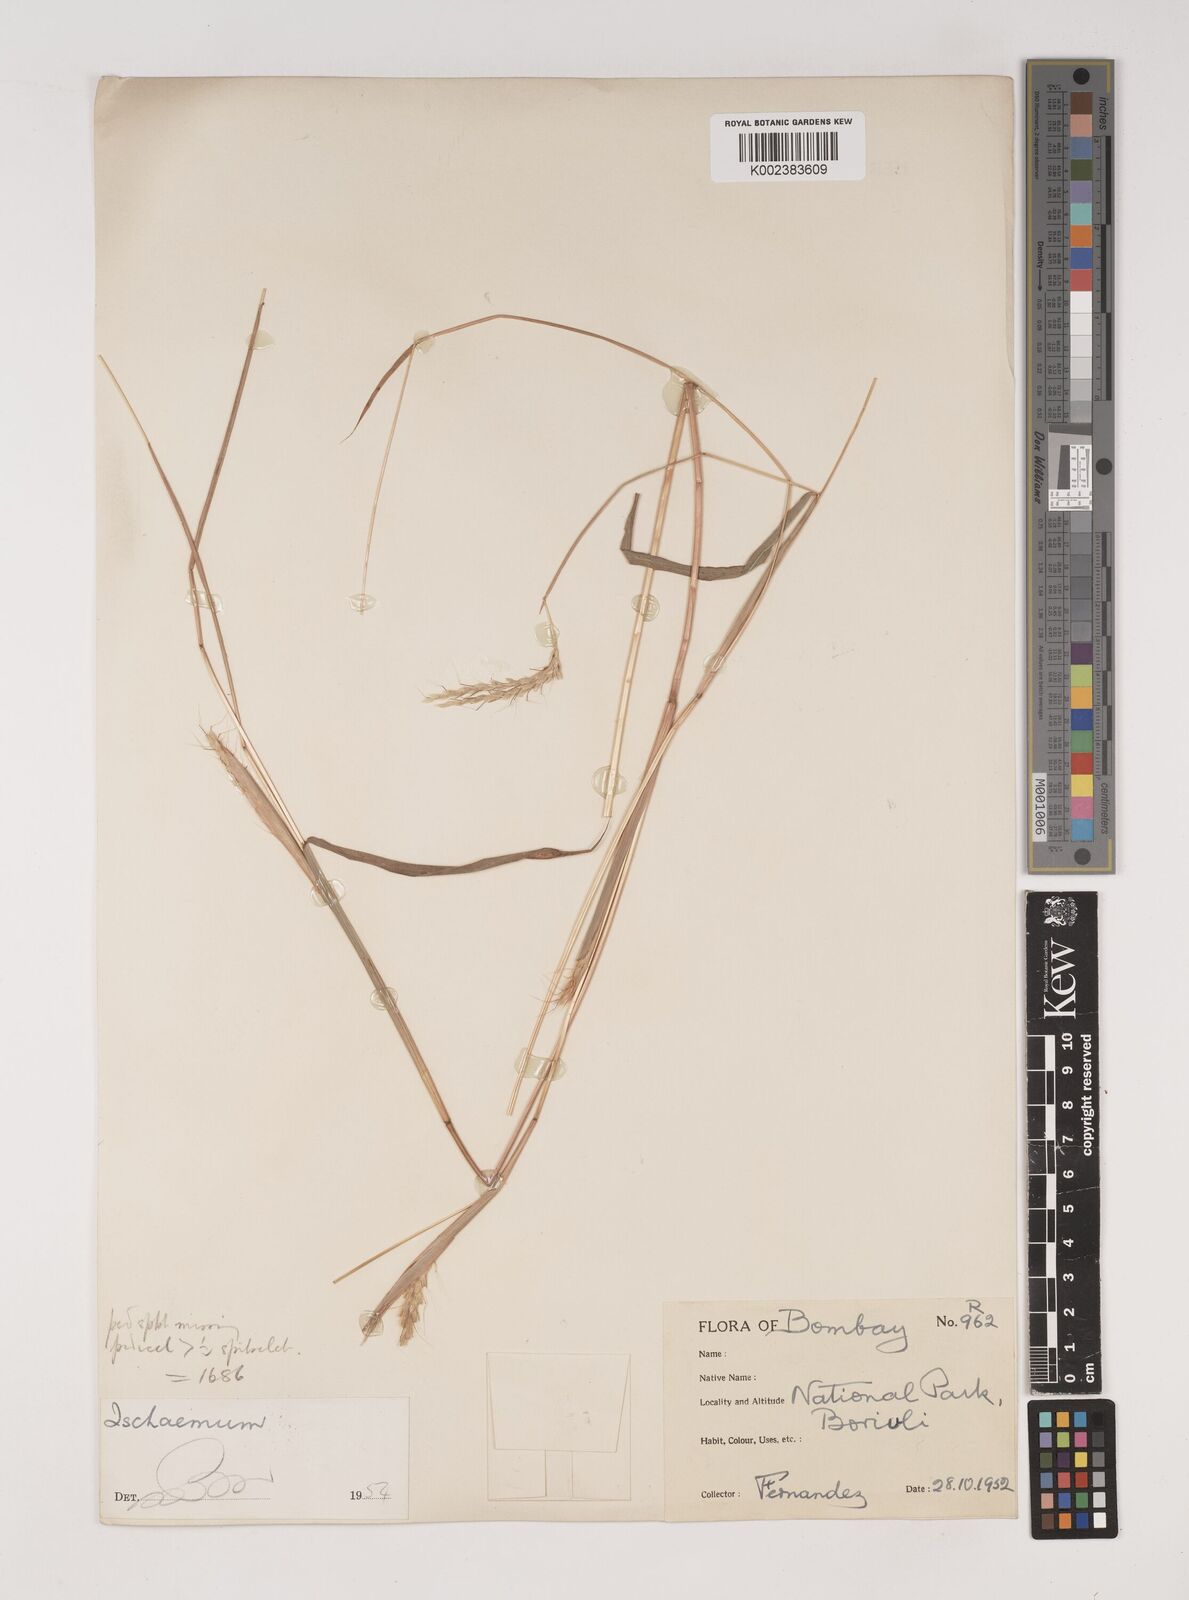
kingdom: Plantae
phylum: Tracheophyta
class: Liliopsida
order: Poales
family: Poaceae
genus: Ischaemum
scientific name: Ischaemum santapaui
